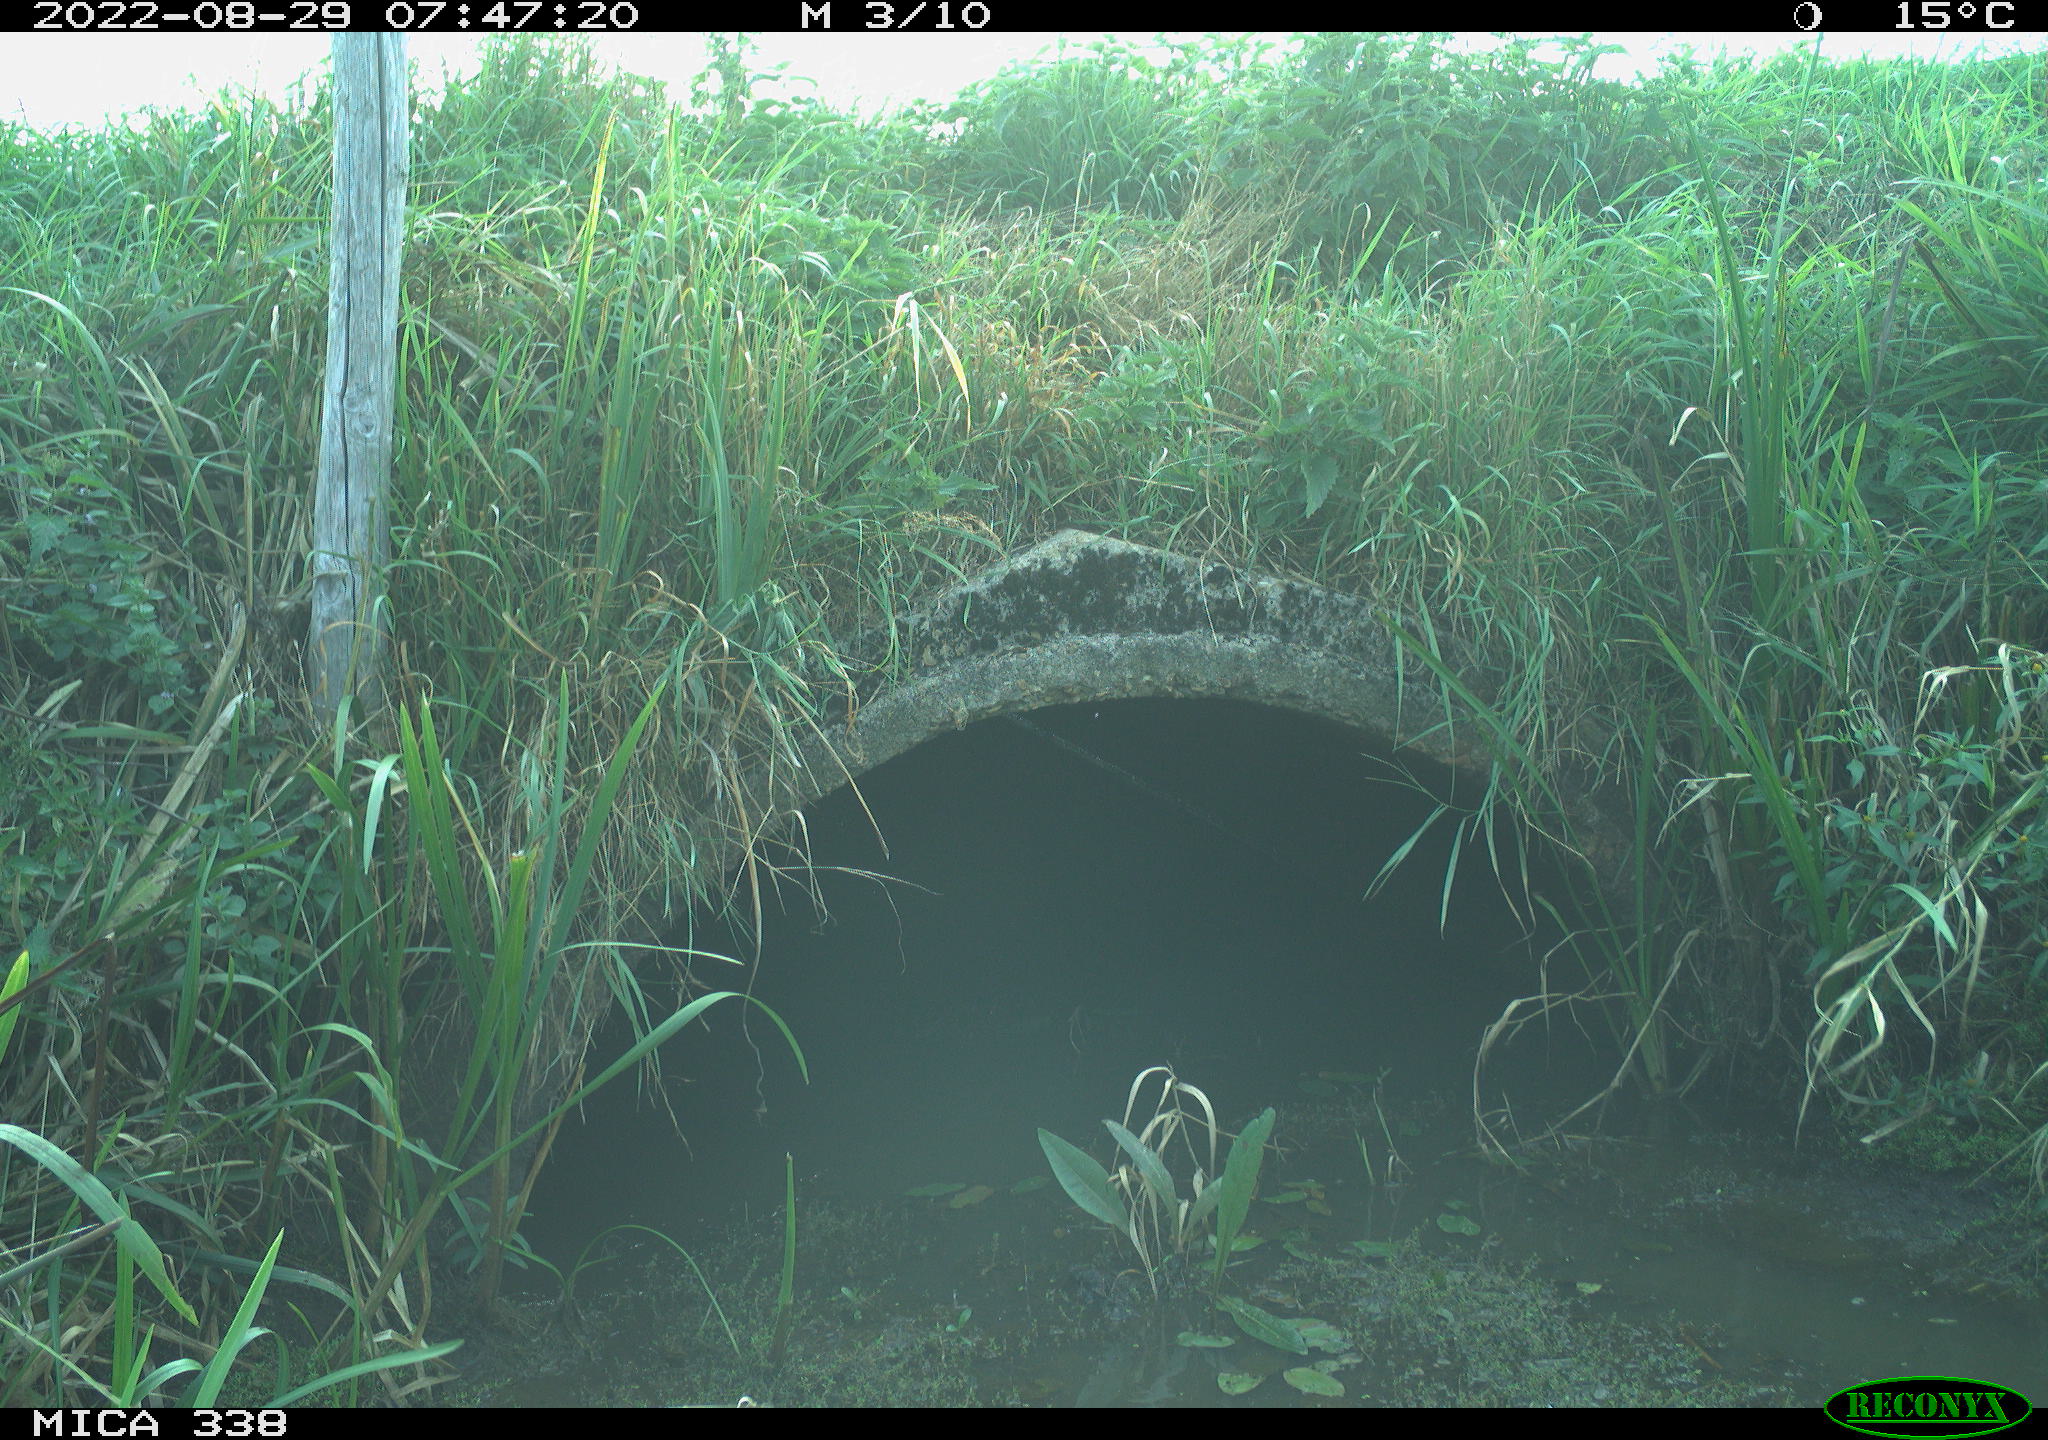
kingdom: Animalia
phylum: Chordata
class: Aves
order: Columbiformes
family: Columbidae
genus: Columba
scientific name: Columba oenas
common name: Stock dove
